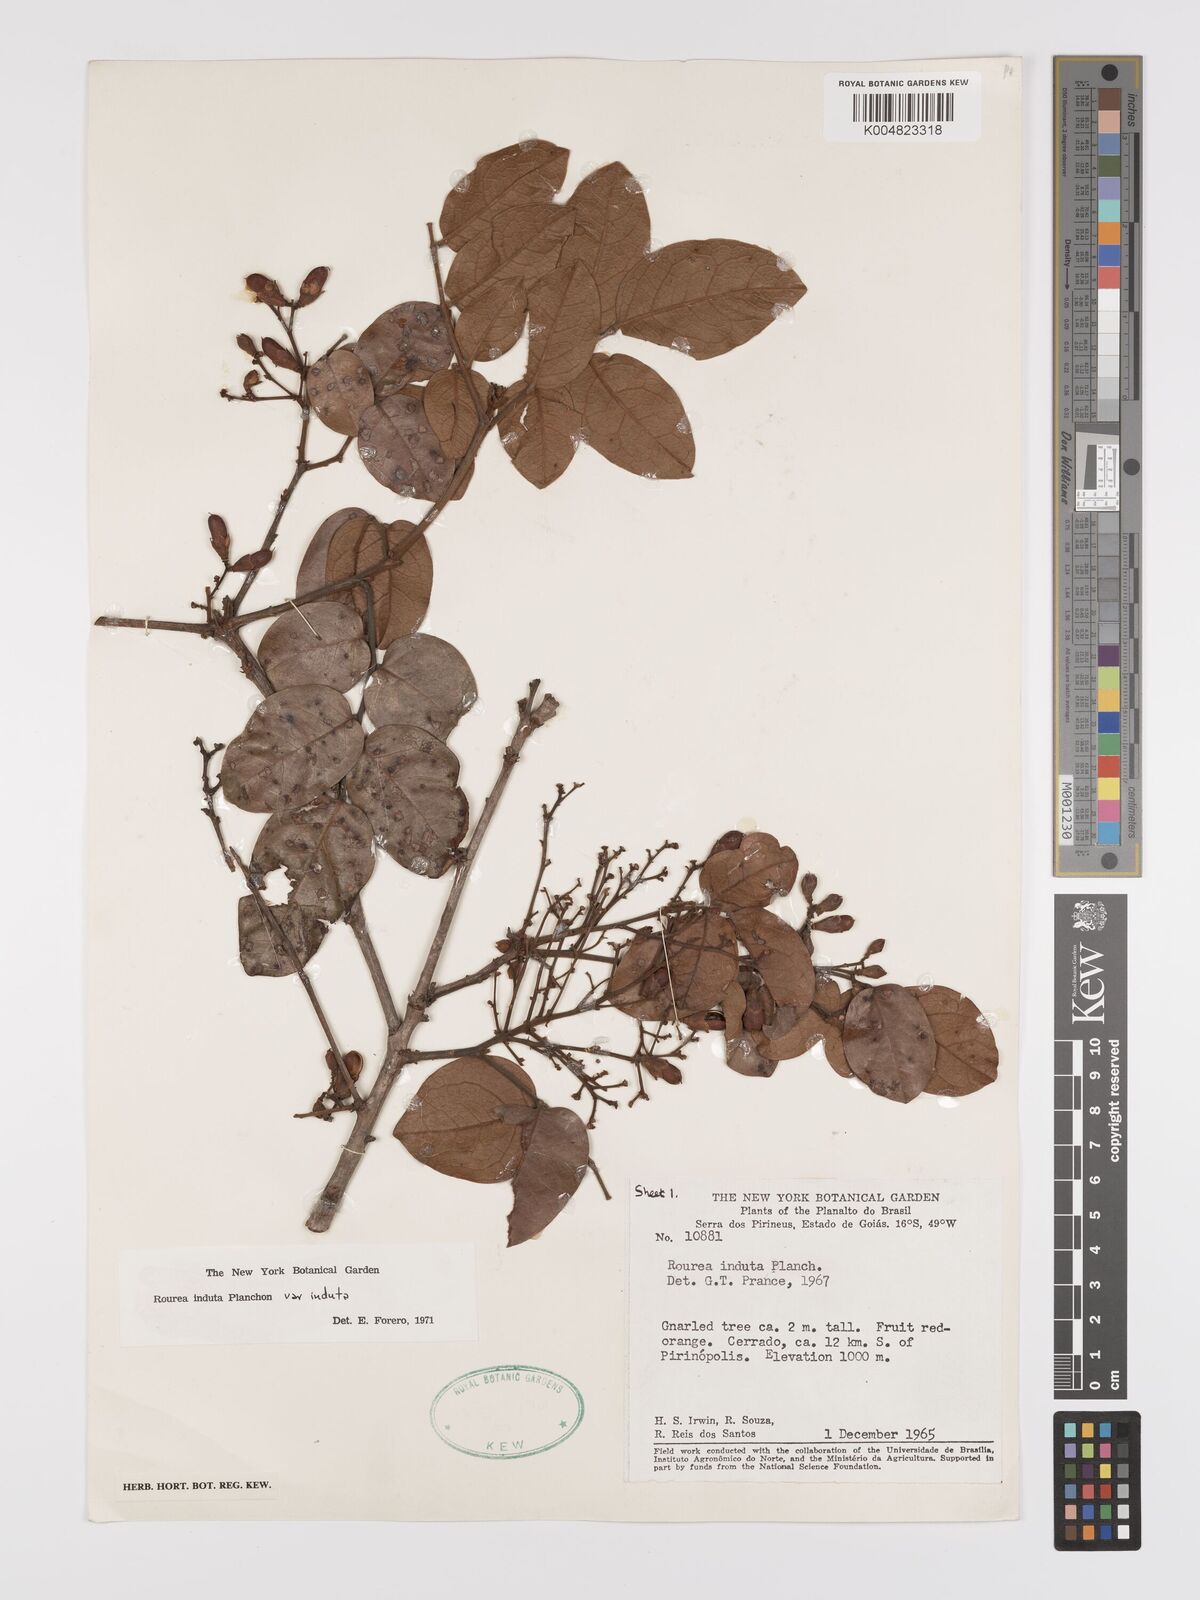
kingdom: Plantae
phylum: Tracheophyta
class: Magnoliopsida
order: Oxalidales
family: Connaraceae
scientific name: Connaraceae
